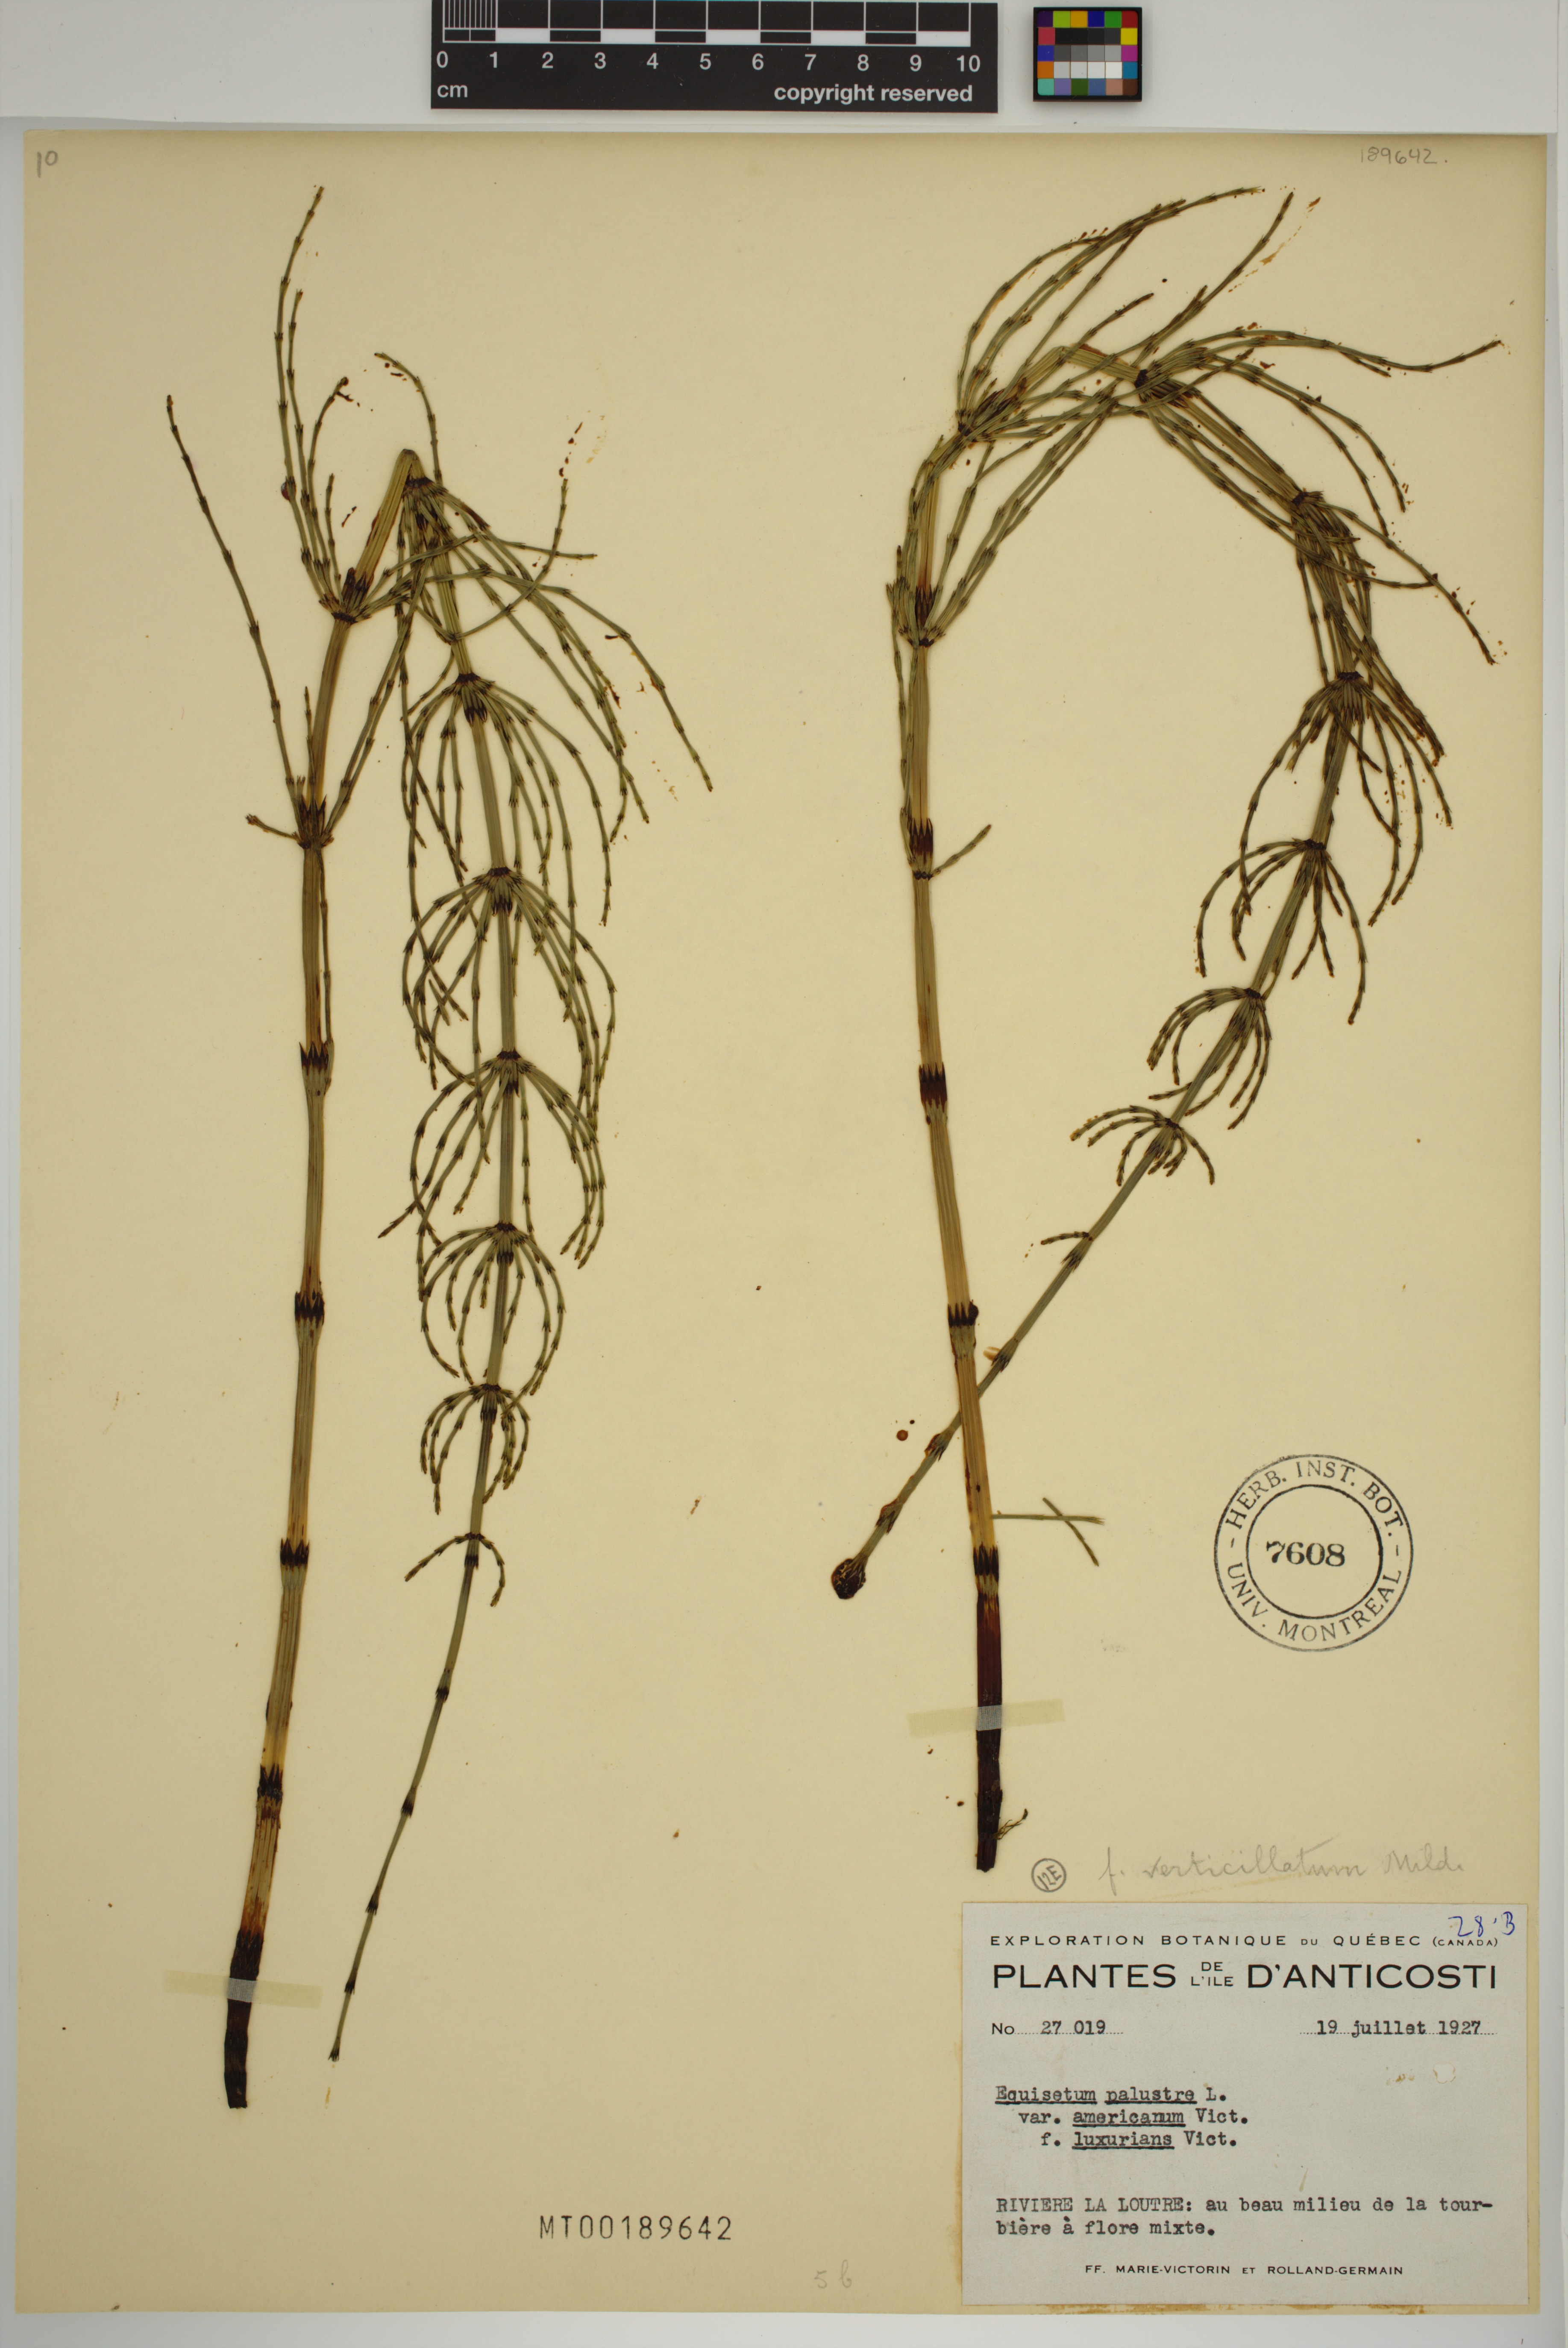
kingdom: Plantae
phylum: Tracheophyta
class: Polypodiopsida
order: Equisetales
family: Equisetaceae
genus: Equisetum
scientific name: Equisetum palustre
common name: Marsh horsetail
